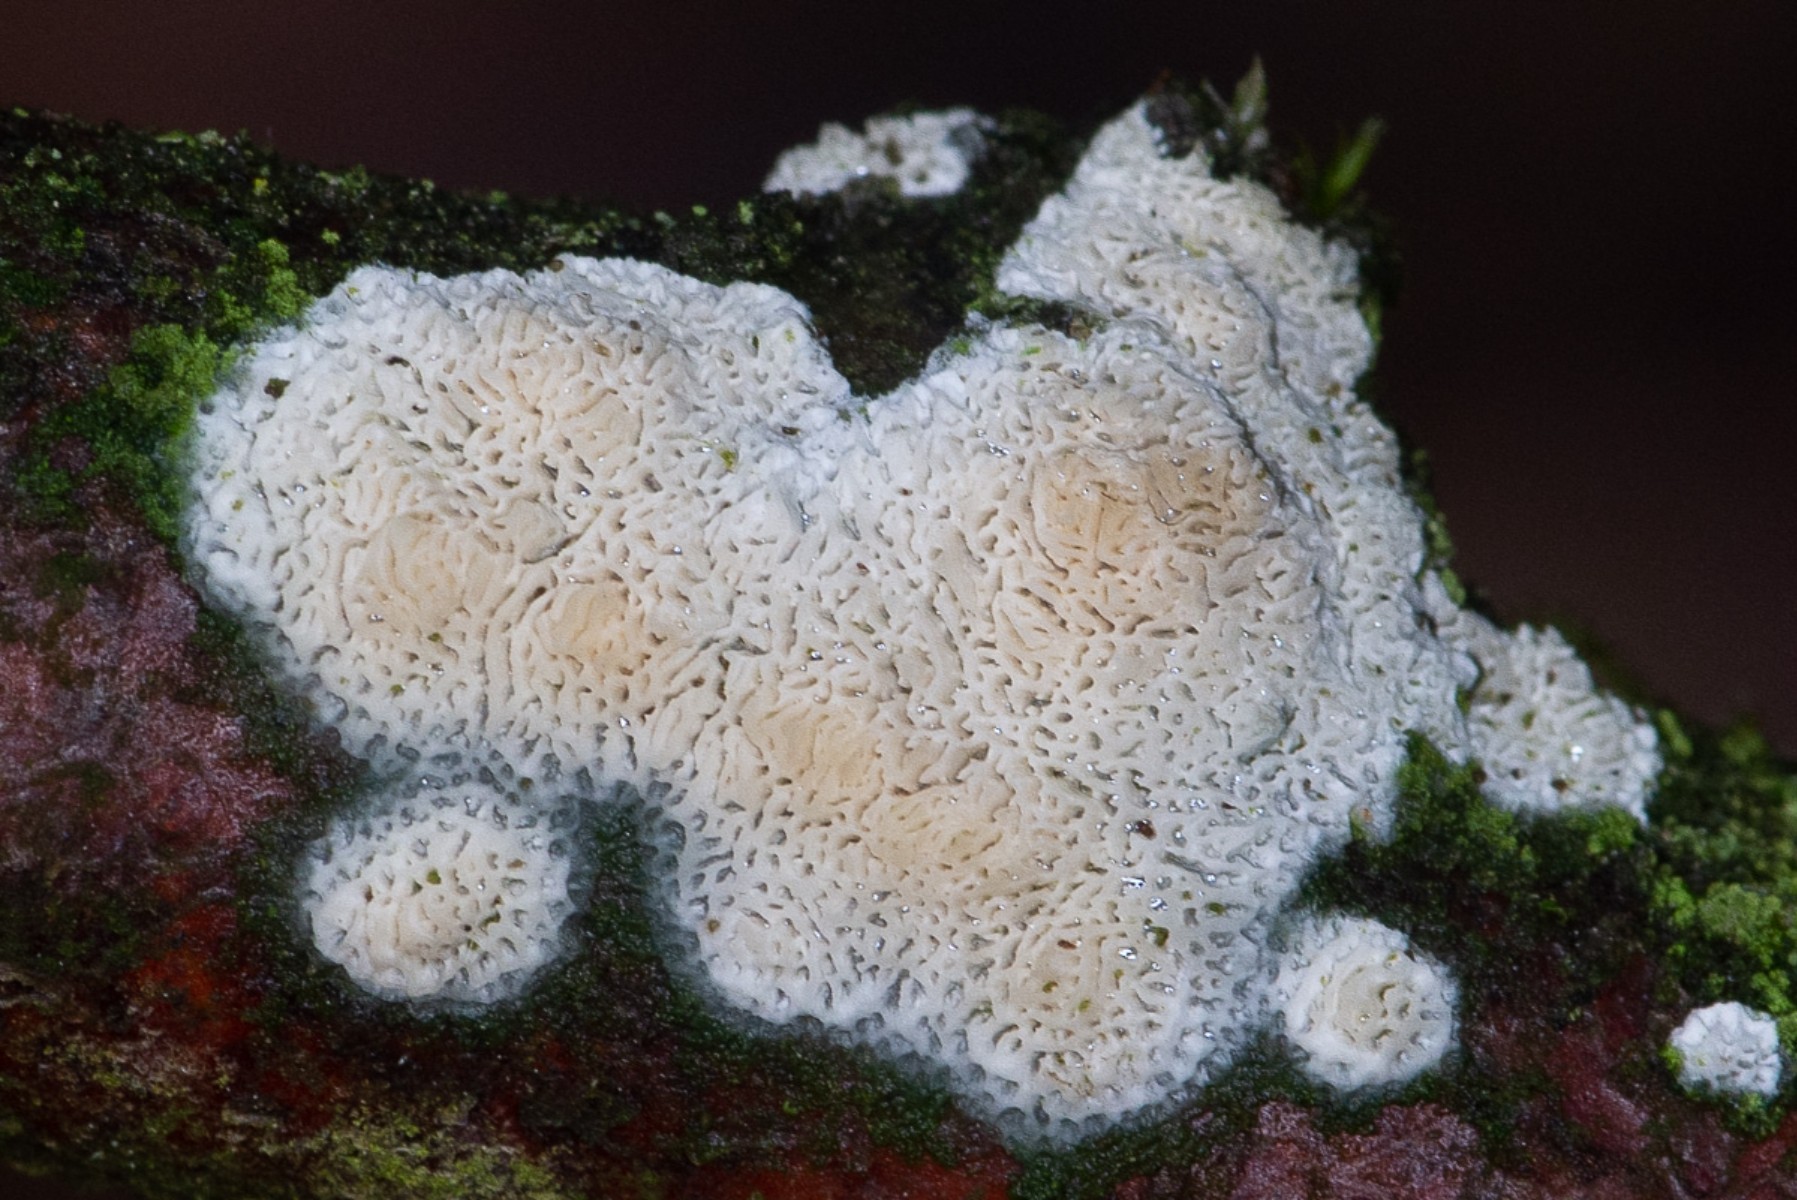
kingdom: Fungi
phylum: Basidiomycota
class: Agaricomycetes
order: Hymenochaetales
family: Schizoporaceae
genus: Xylodon
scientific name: Xylodon subtropicus
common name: labyrint-tandsvamp
